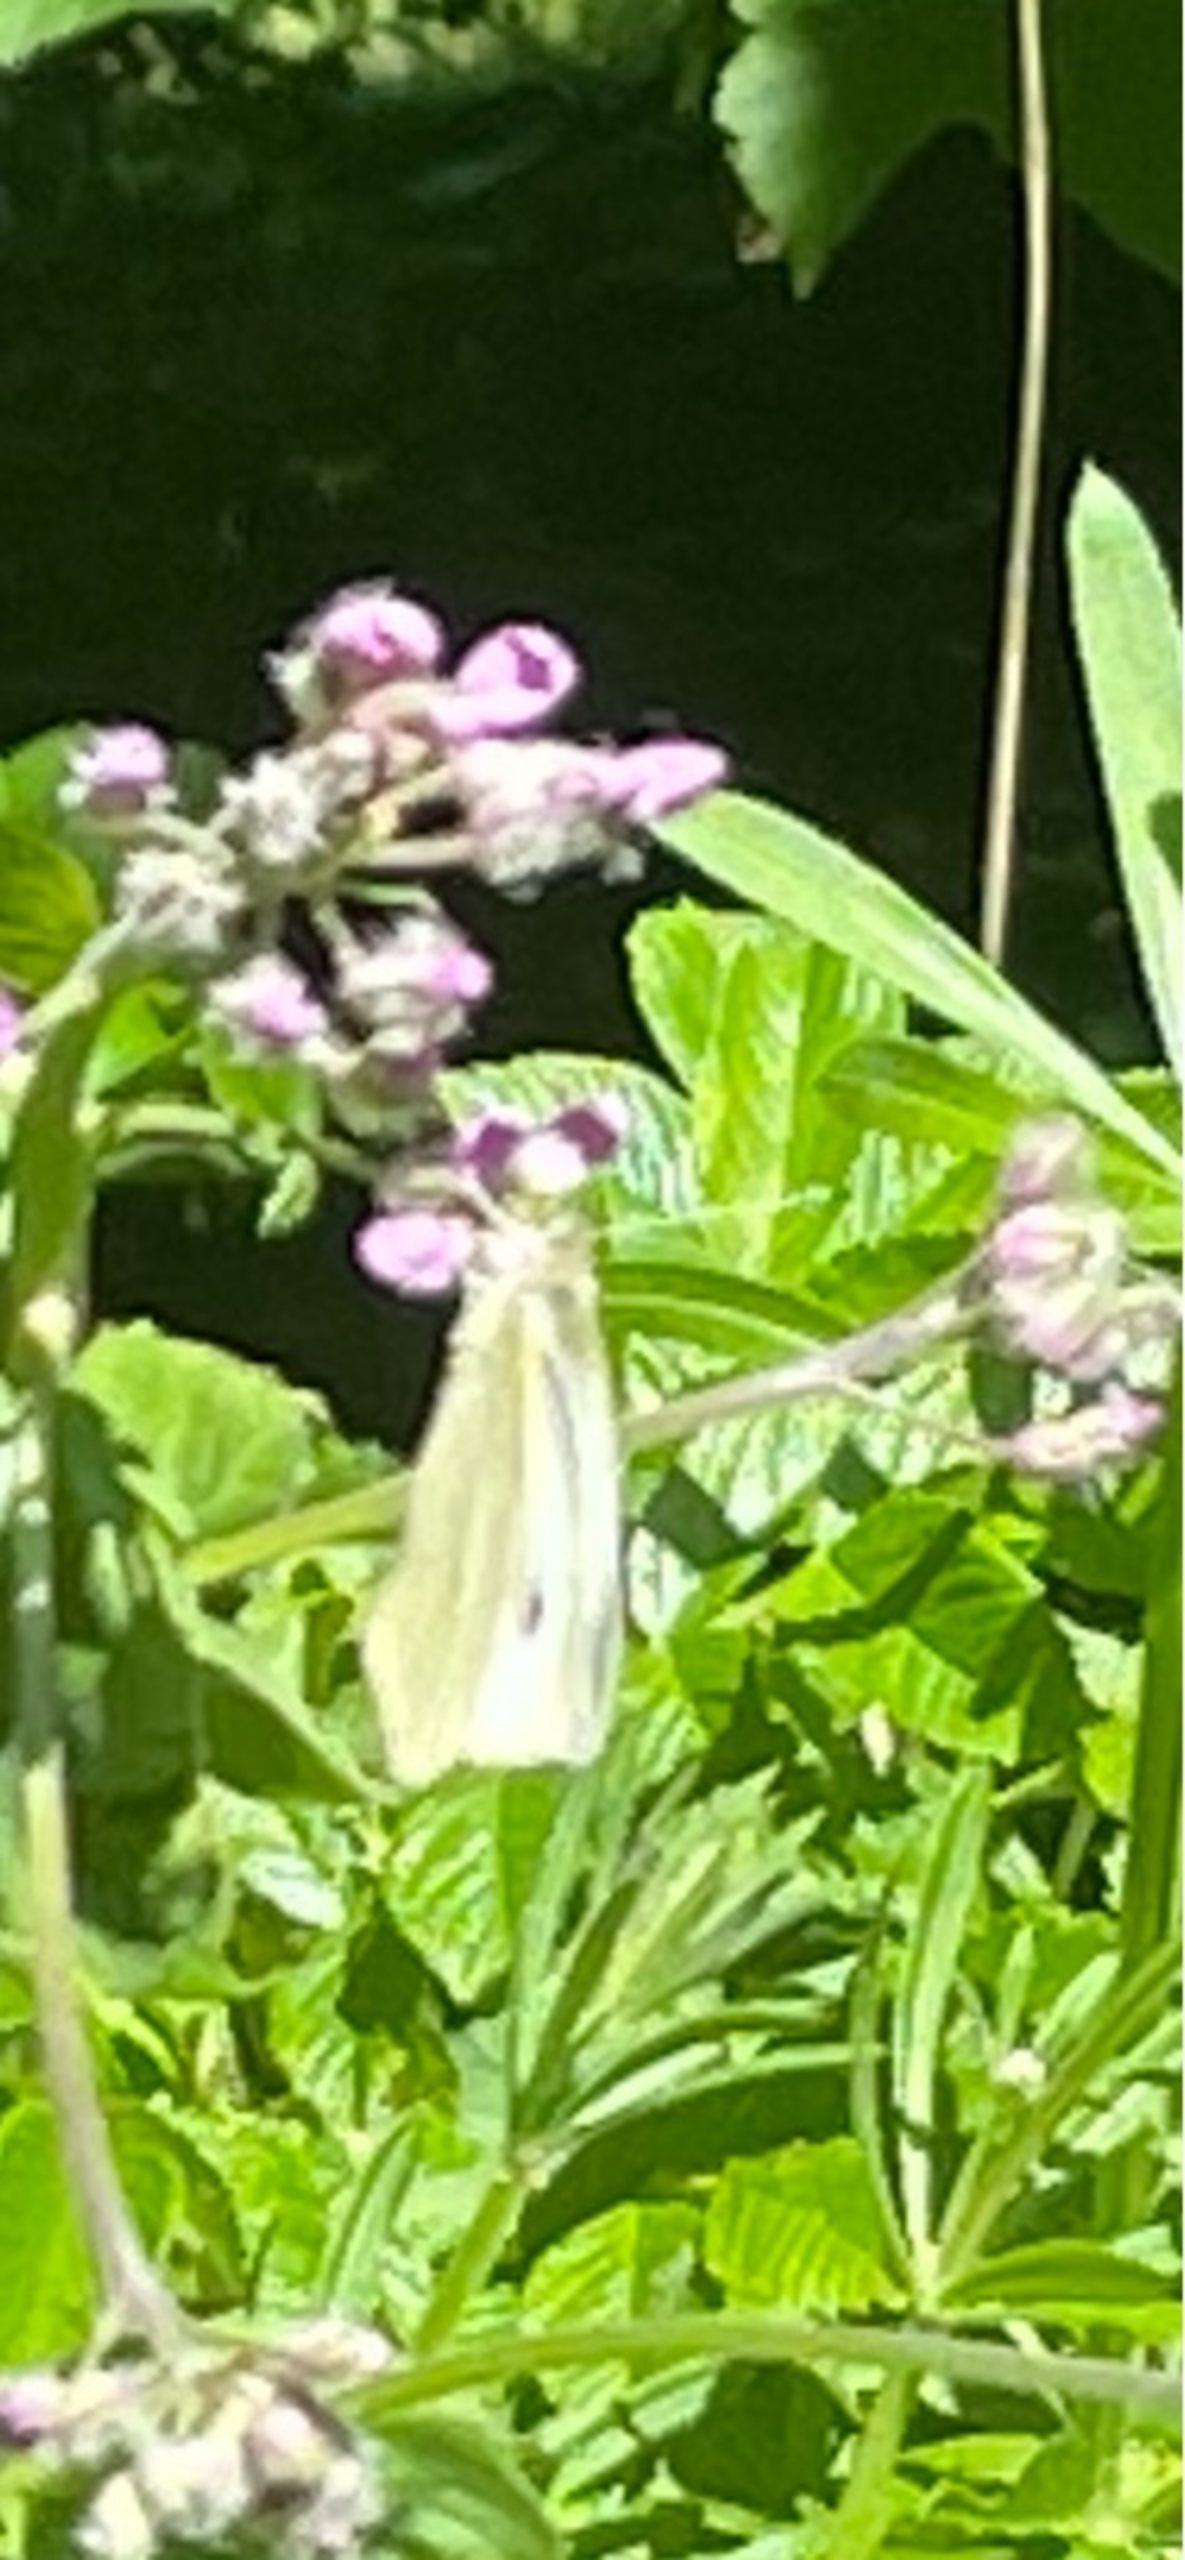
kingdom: Animalia
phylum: Arthropoda
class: Insecta
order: Lepidoptera
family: Pieridae
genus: Pieris
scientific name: Pieris brassicae
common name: Stor kålsommerfugl
